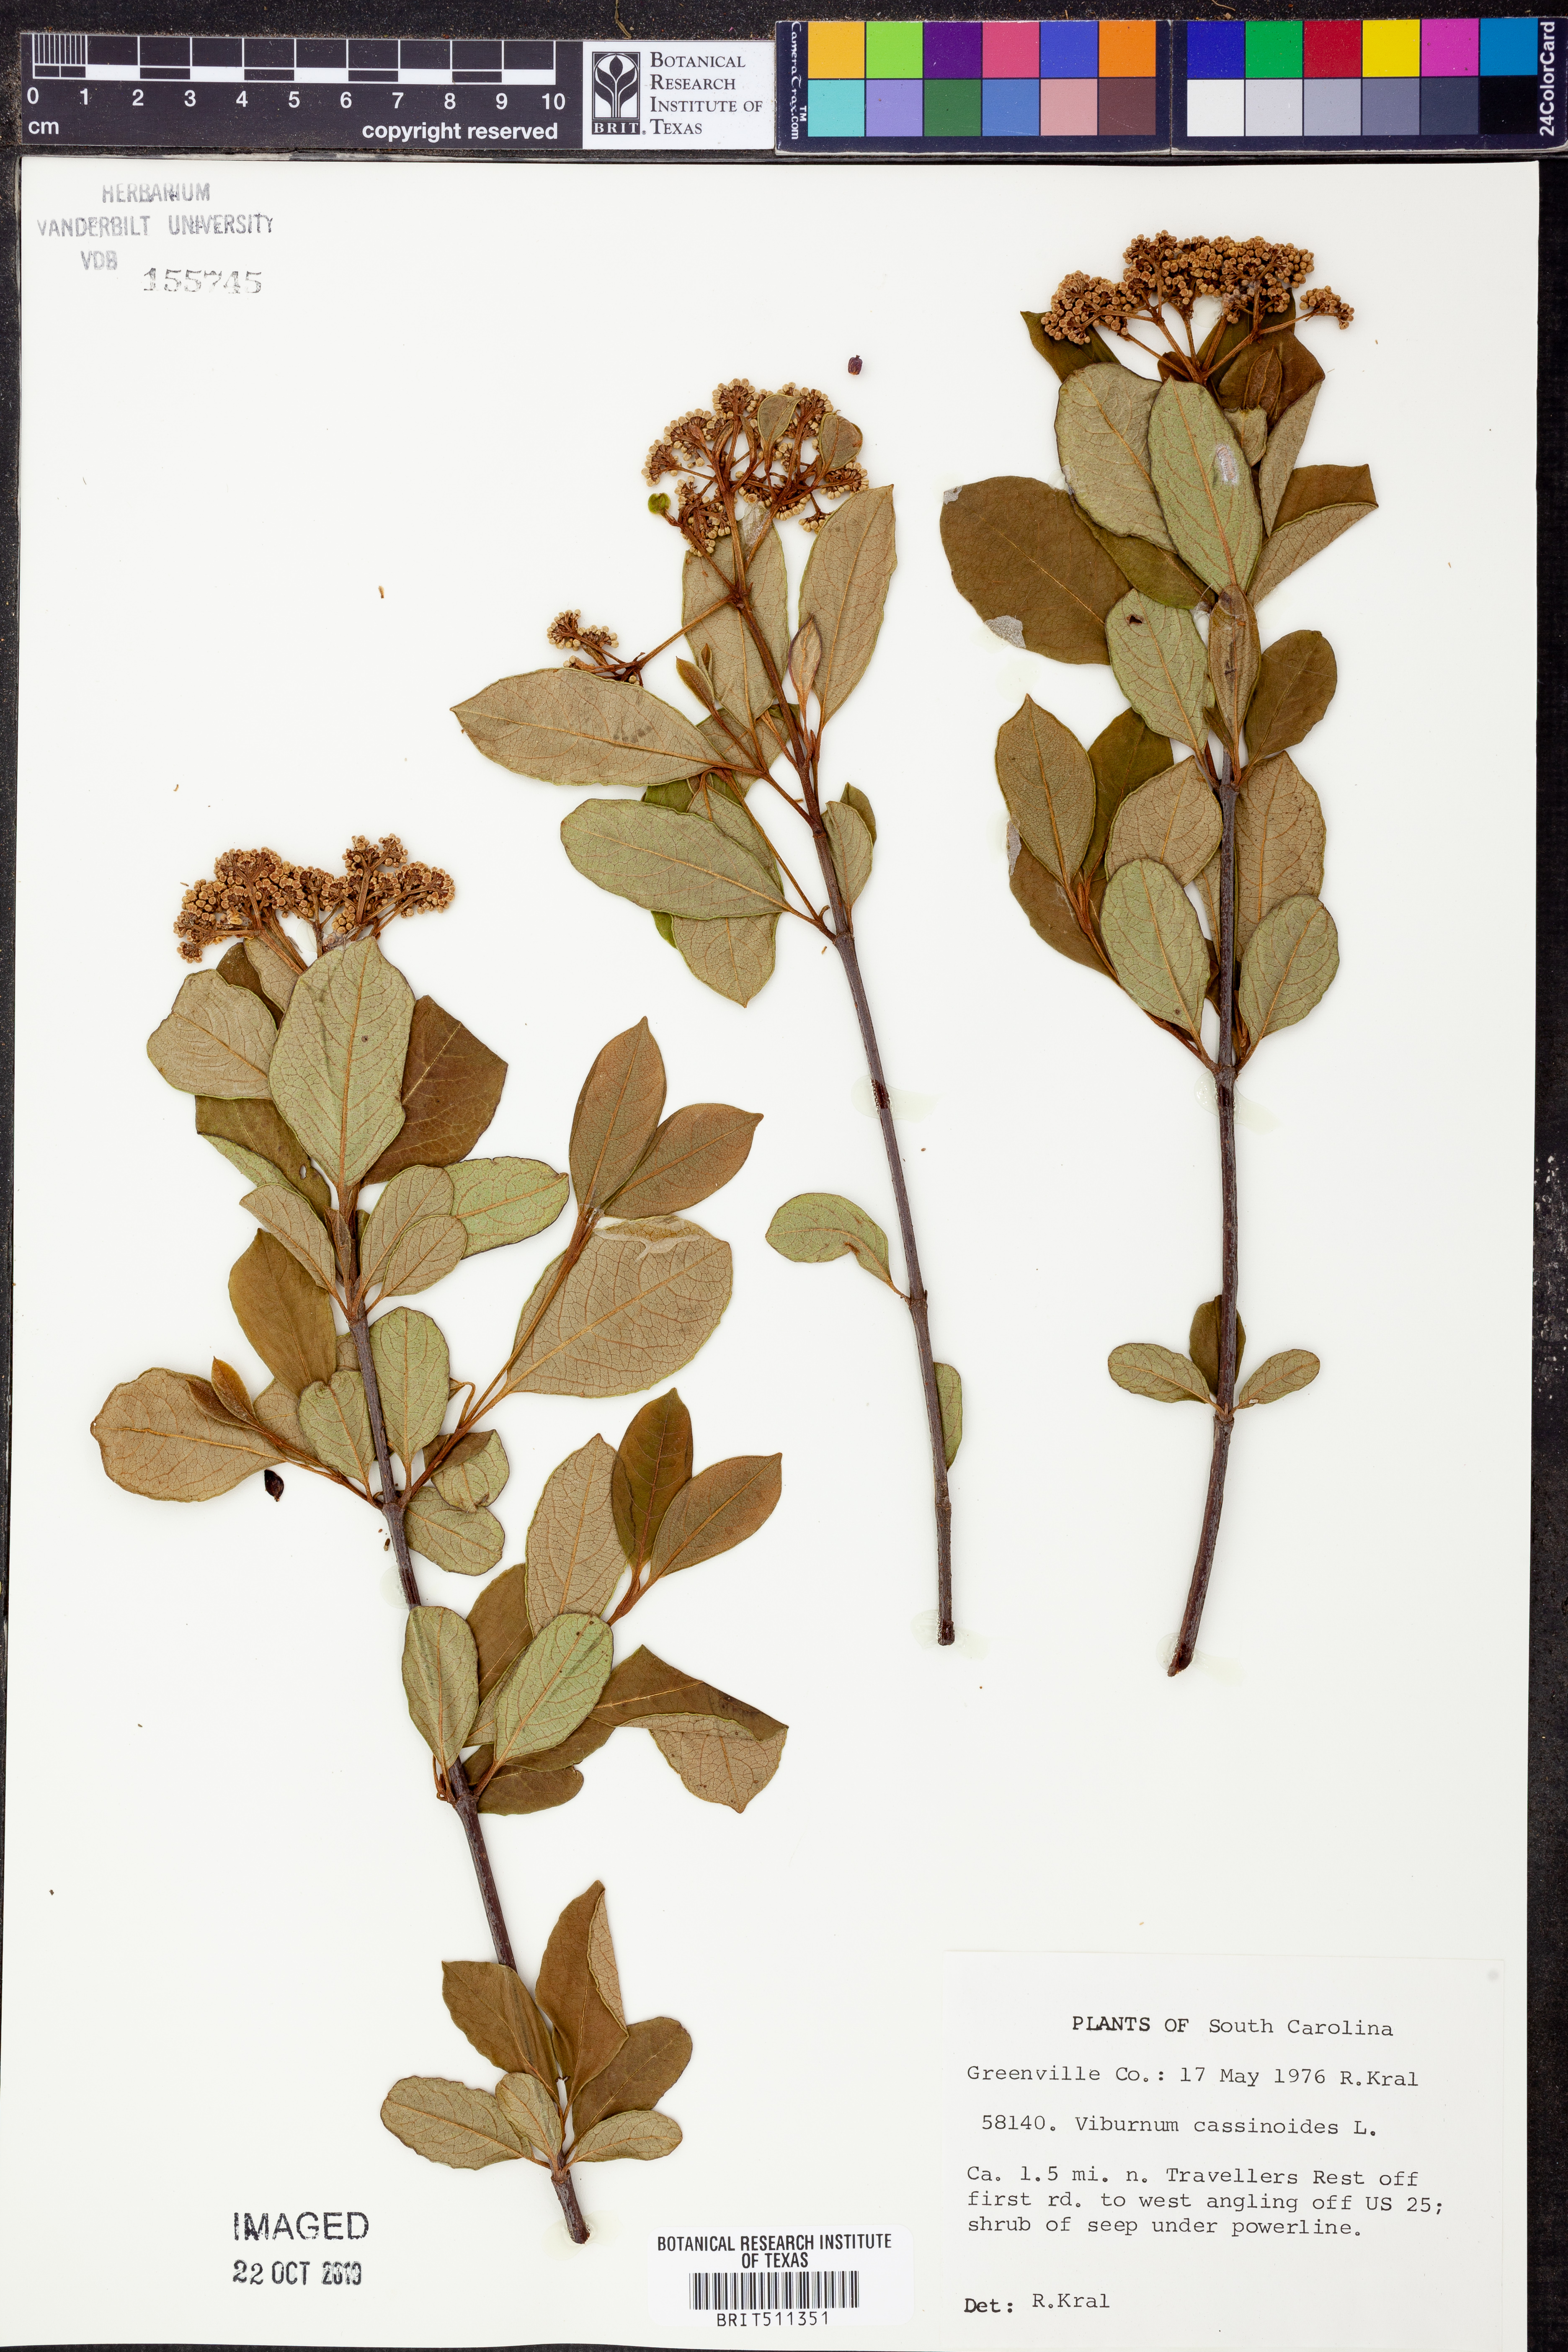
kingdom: Plantae
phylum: Tracheophyta
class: Magnoliopsida
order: Dipsacales
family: Viburnaceae
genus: Viburnum
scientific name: Viburnum cassinoides
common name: Swamp haw
